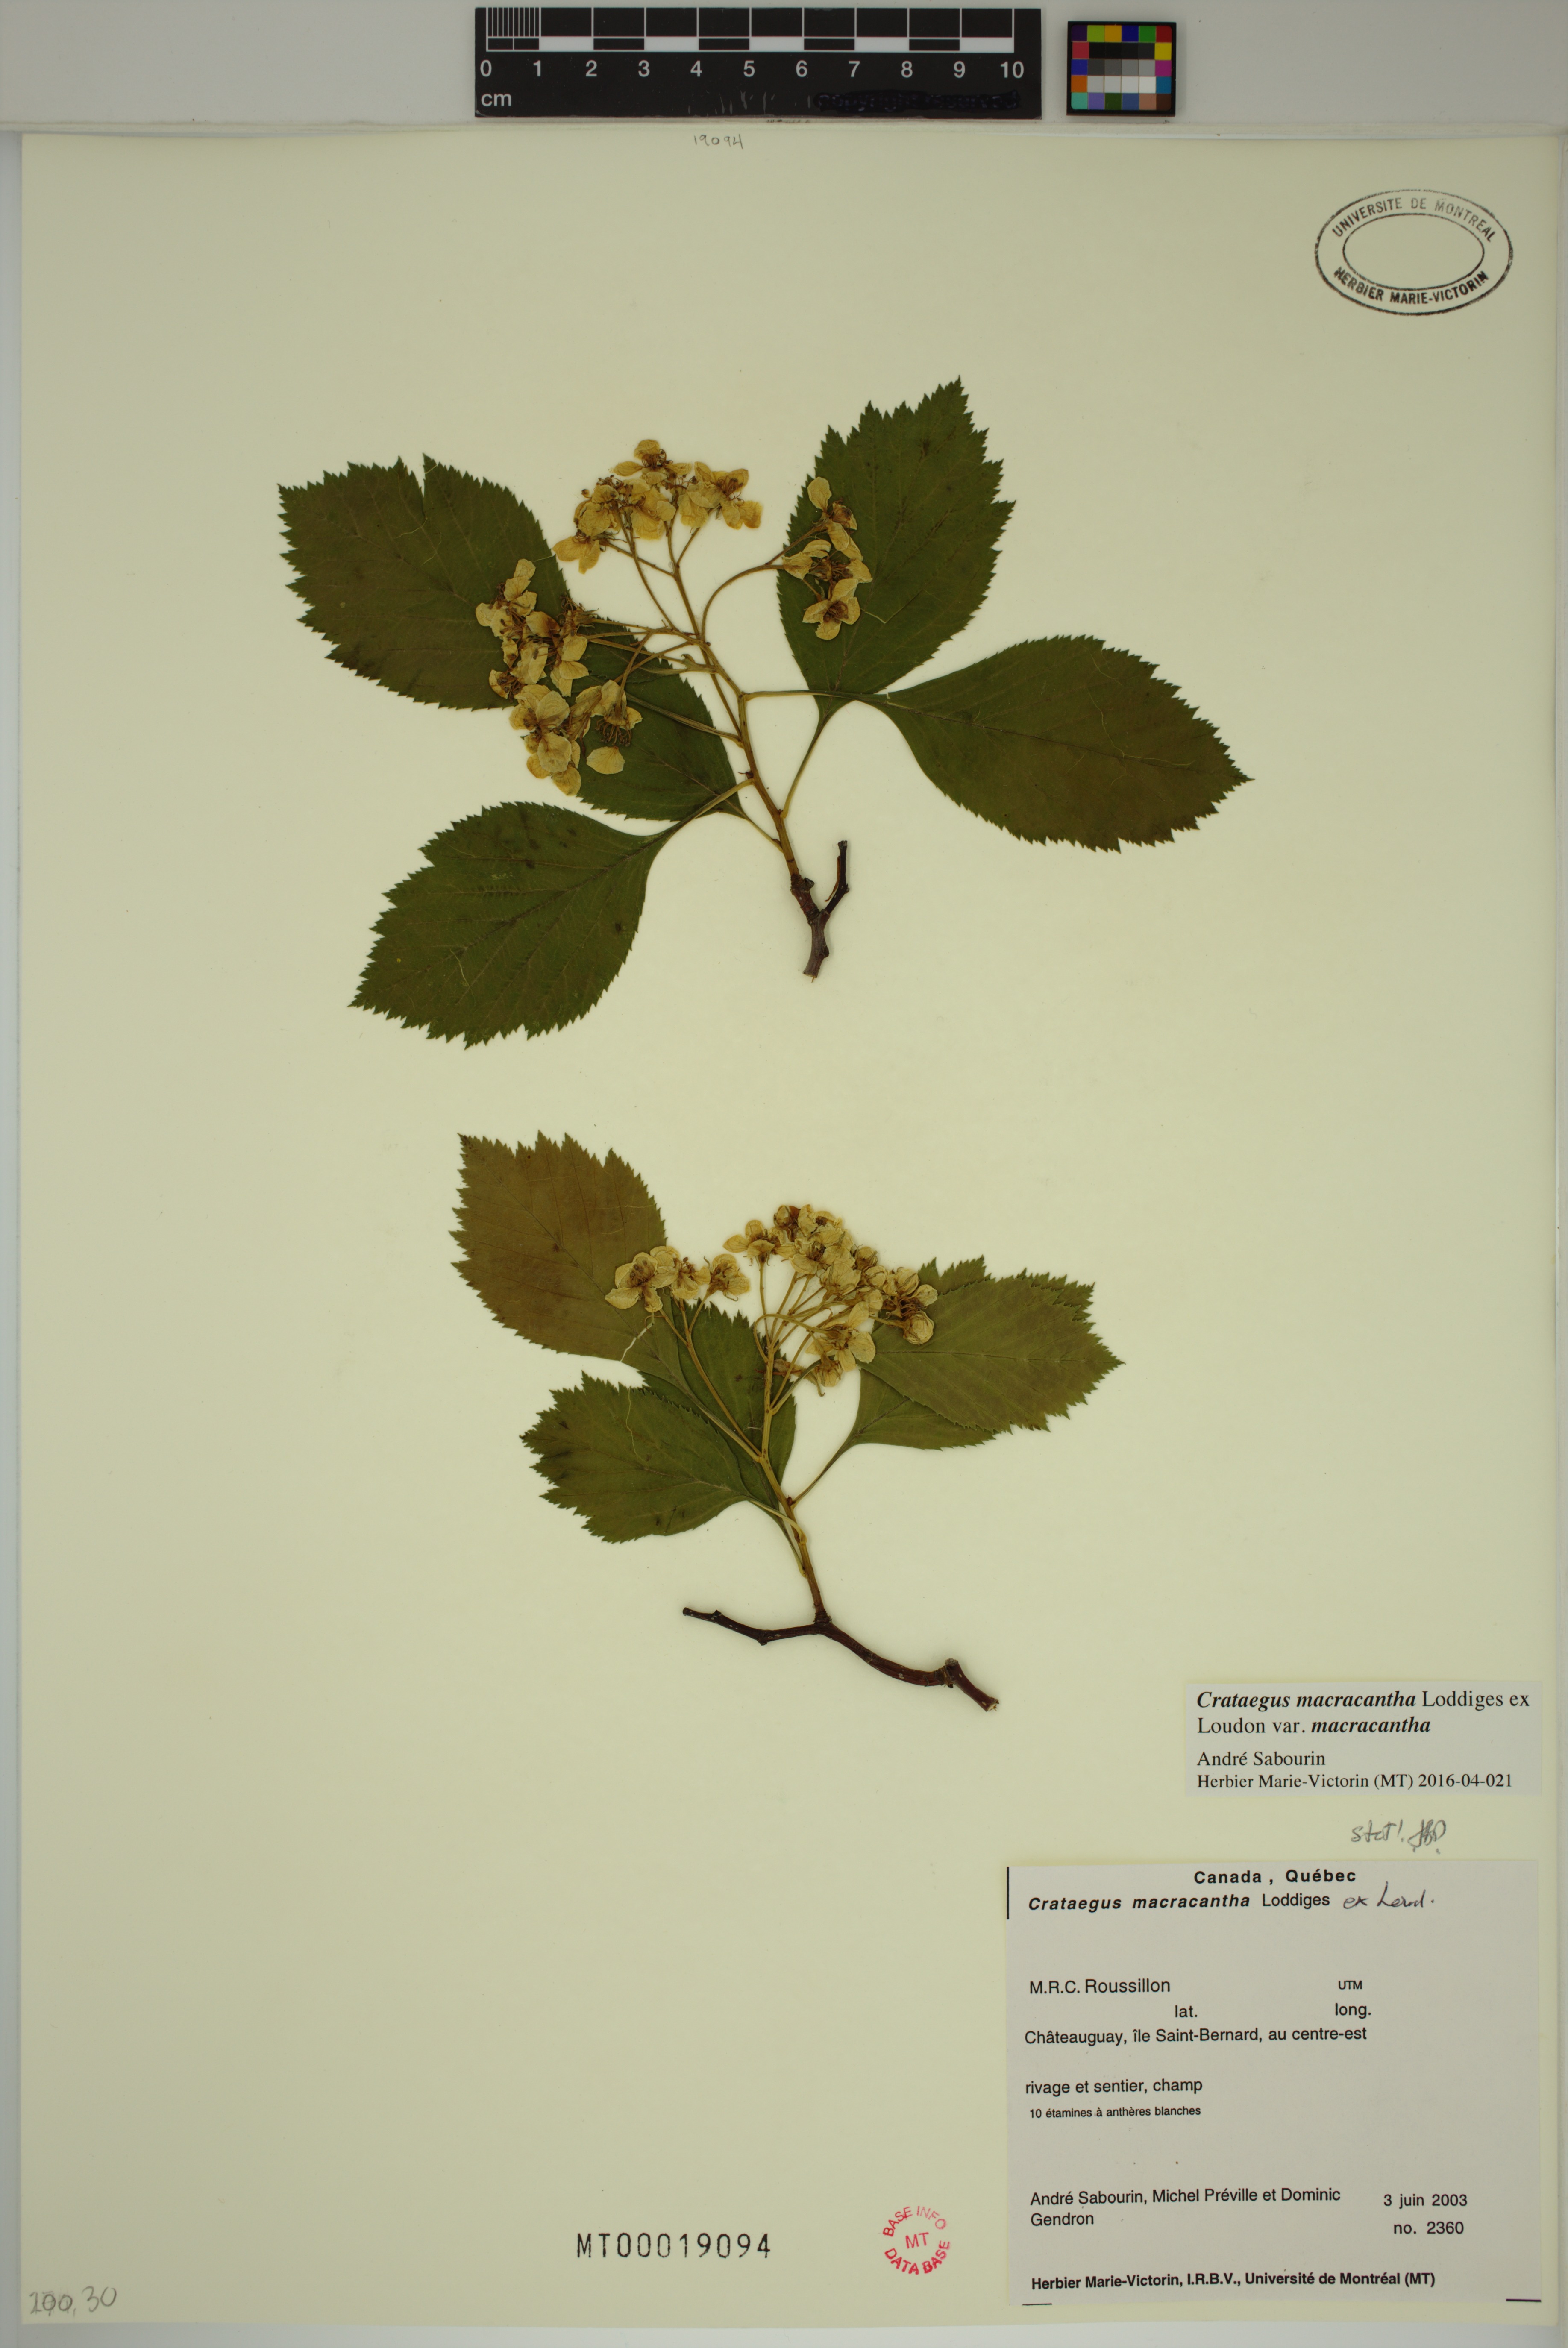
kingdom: Plantae
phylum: Tracheophyta
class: Magnoliopsida
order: Rosales
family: Rosaceae
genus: Crataegus
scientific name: Crataegus macracantha
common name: Large-thorn hawthorn
